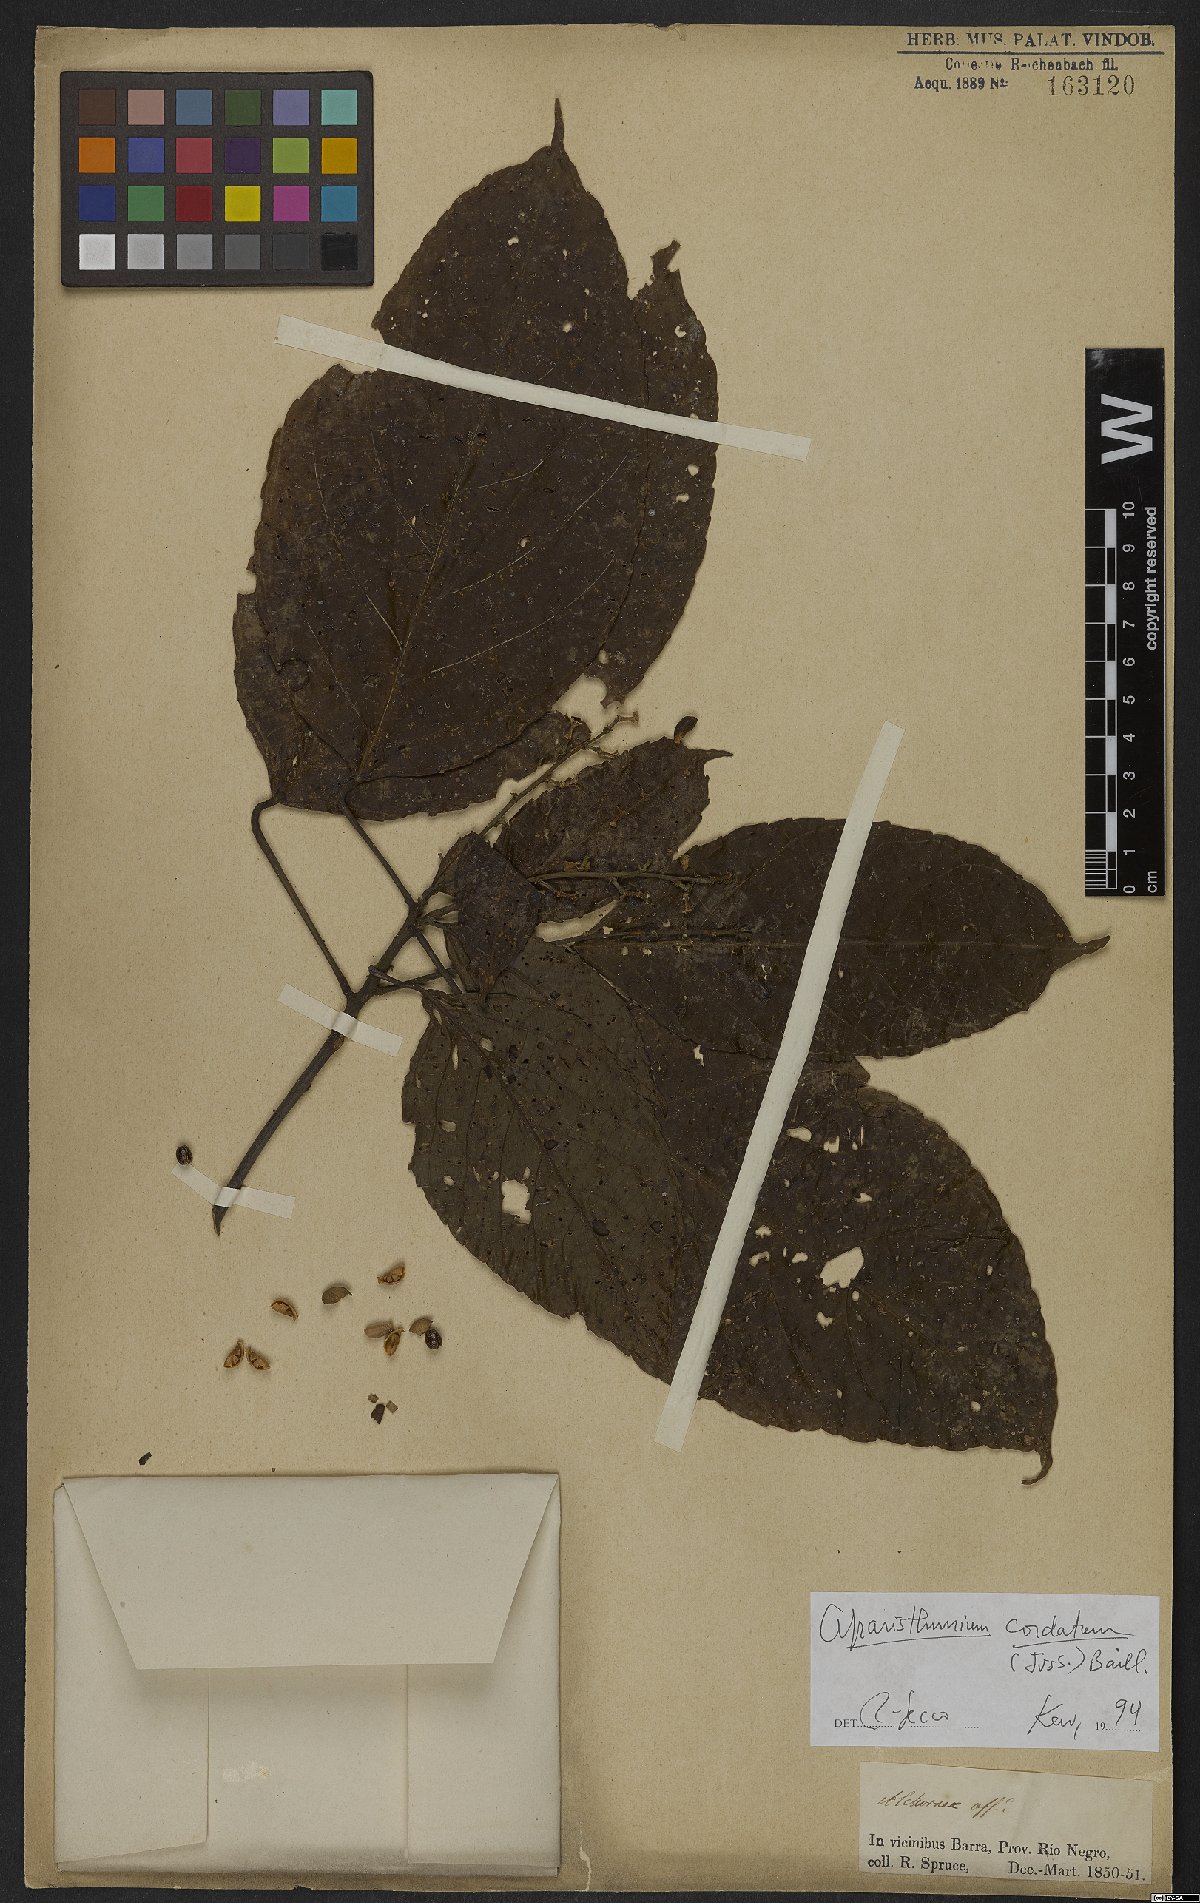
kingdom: Plantae
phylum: Tracheophyta
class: Magnoliopsida
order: Malpighiales
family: Euphorbiaceae
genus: Aparisthmium
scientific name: Aparisthmium cordatum
